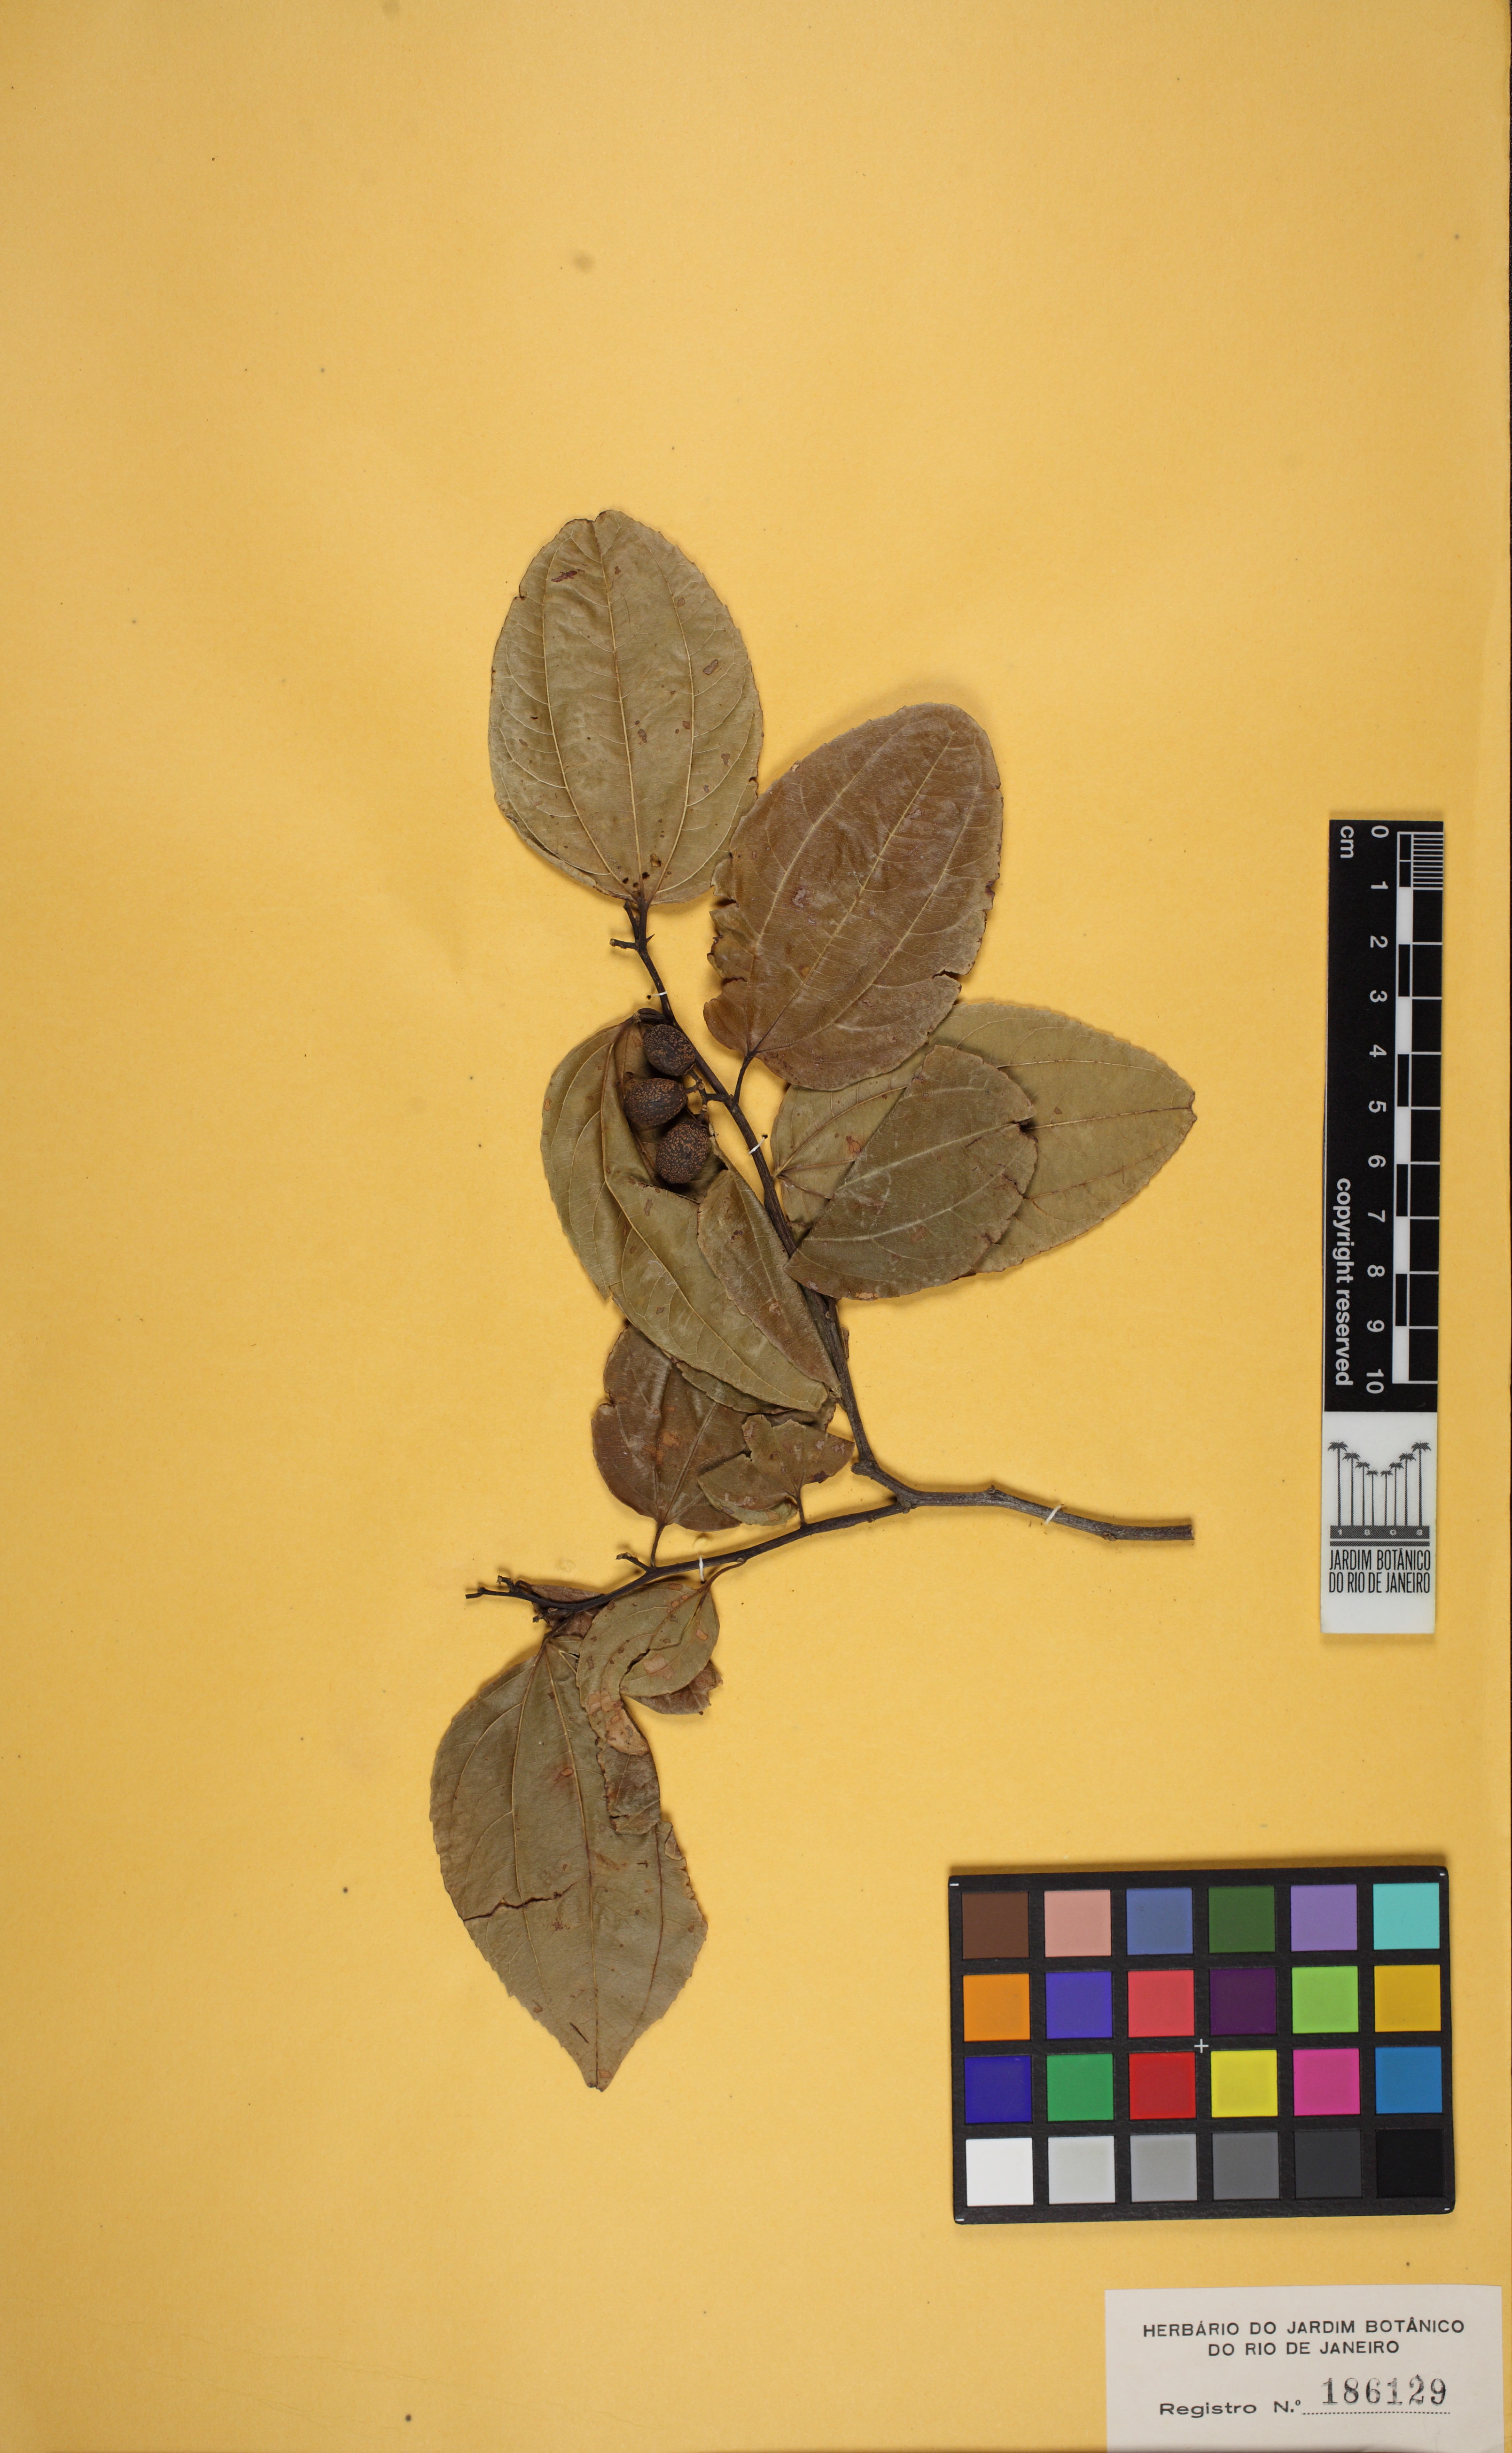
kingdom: Plantae
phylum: Tracheophyta
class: Magnoliopsida
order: Rosales
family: Rhamnaceae
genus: Sarcomphalus
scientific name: Sarcomphalus joazeiro
